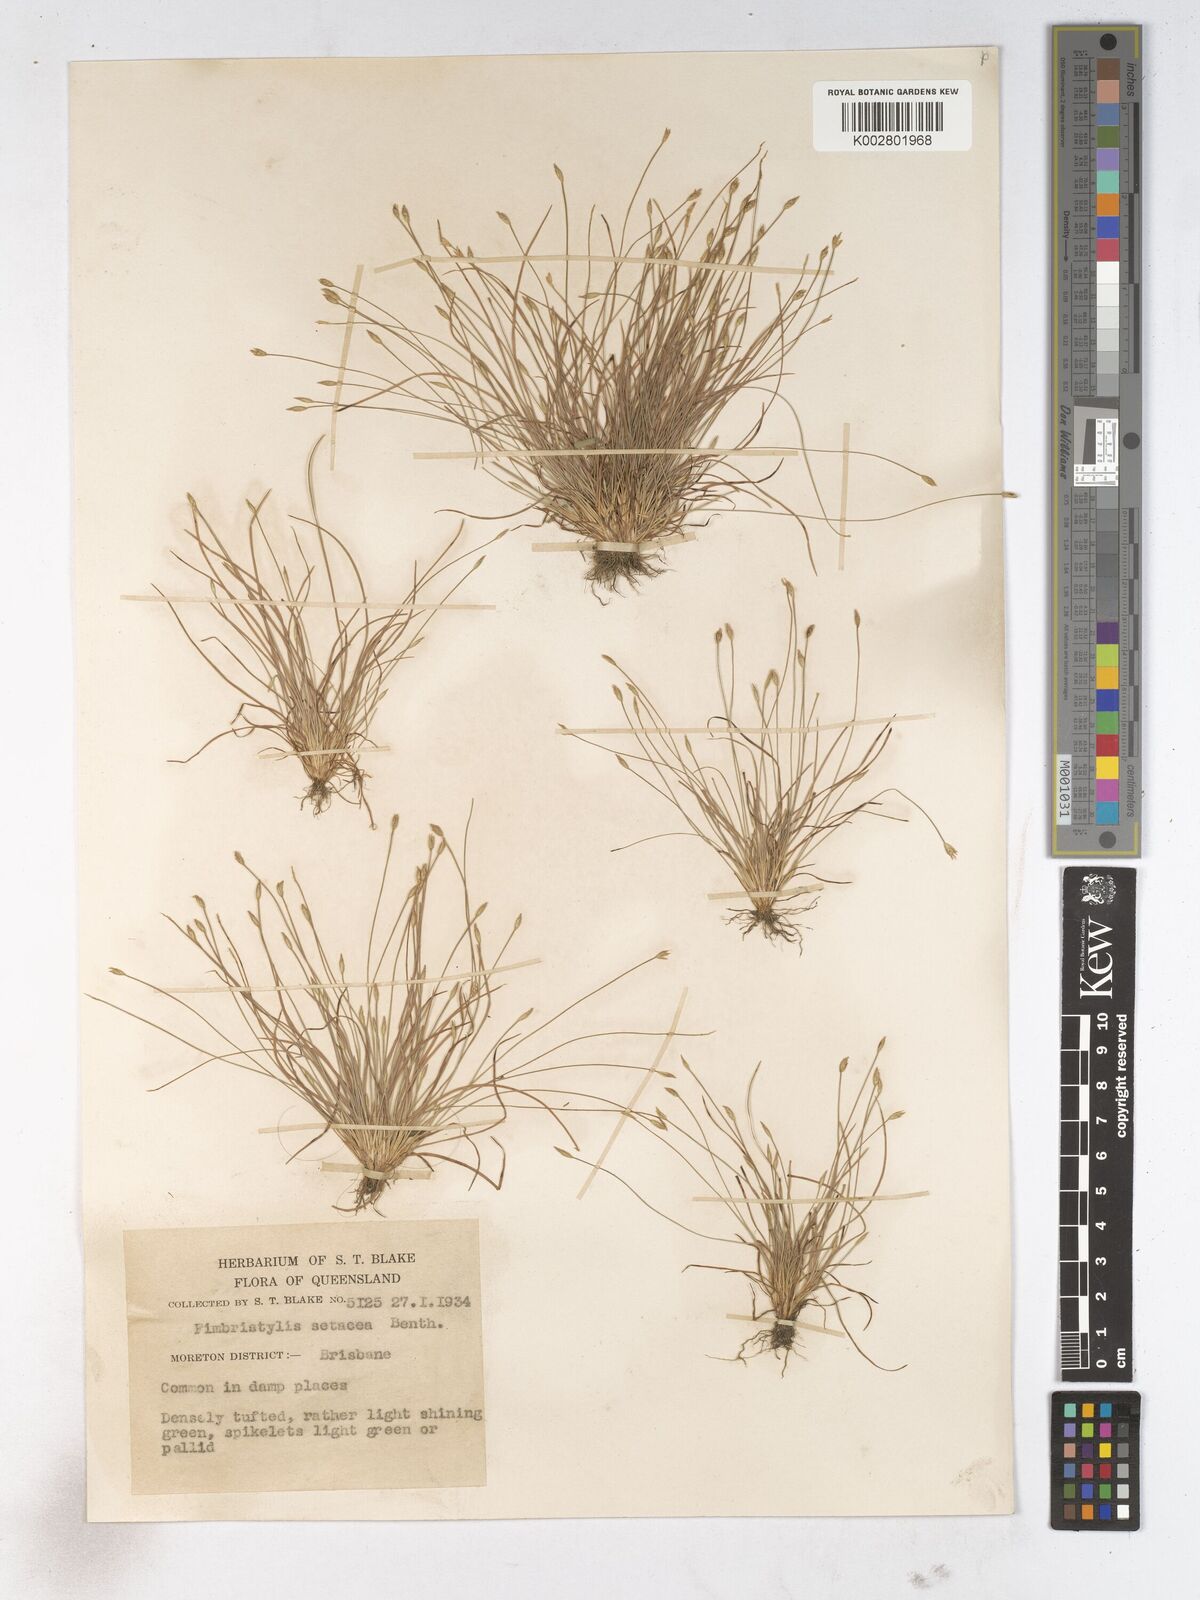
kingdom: Plantae
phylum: Tracheophyta
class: Liliopsida
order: Poales
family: Cyperaceae
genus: Fimbristylis
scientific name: Fimbristylis acicularis
